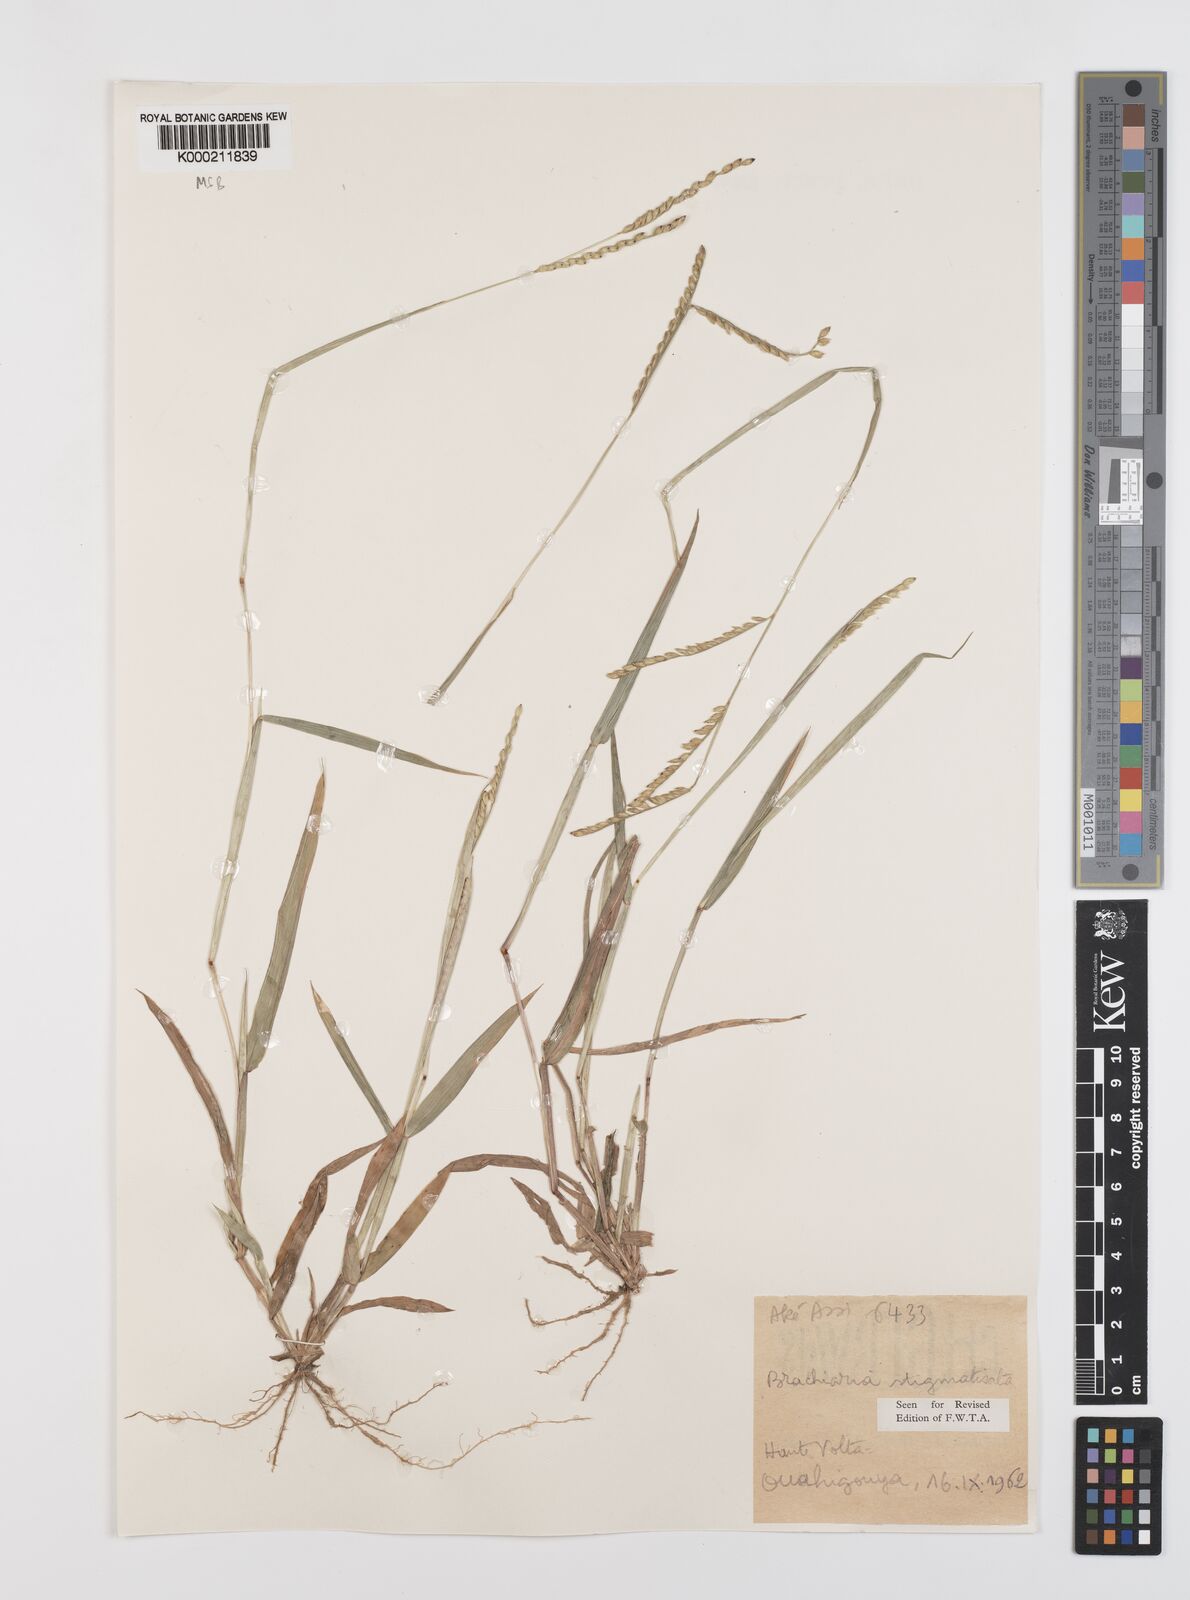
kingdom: Plantae
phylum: Tracheophyta
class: Liliopsida
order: Poales
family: Poaceae
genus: Urochloa
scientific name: Urochloa stigmatisata
